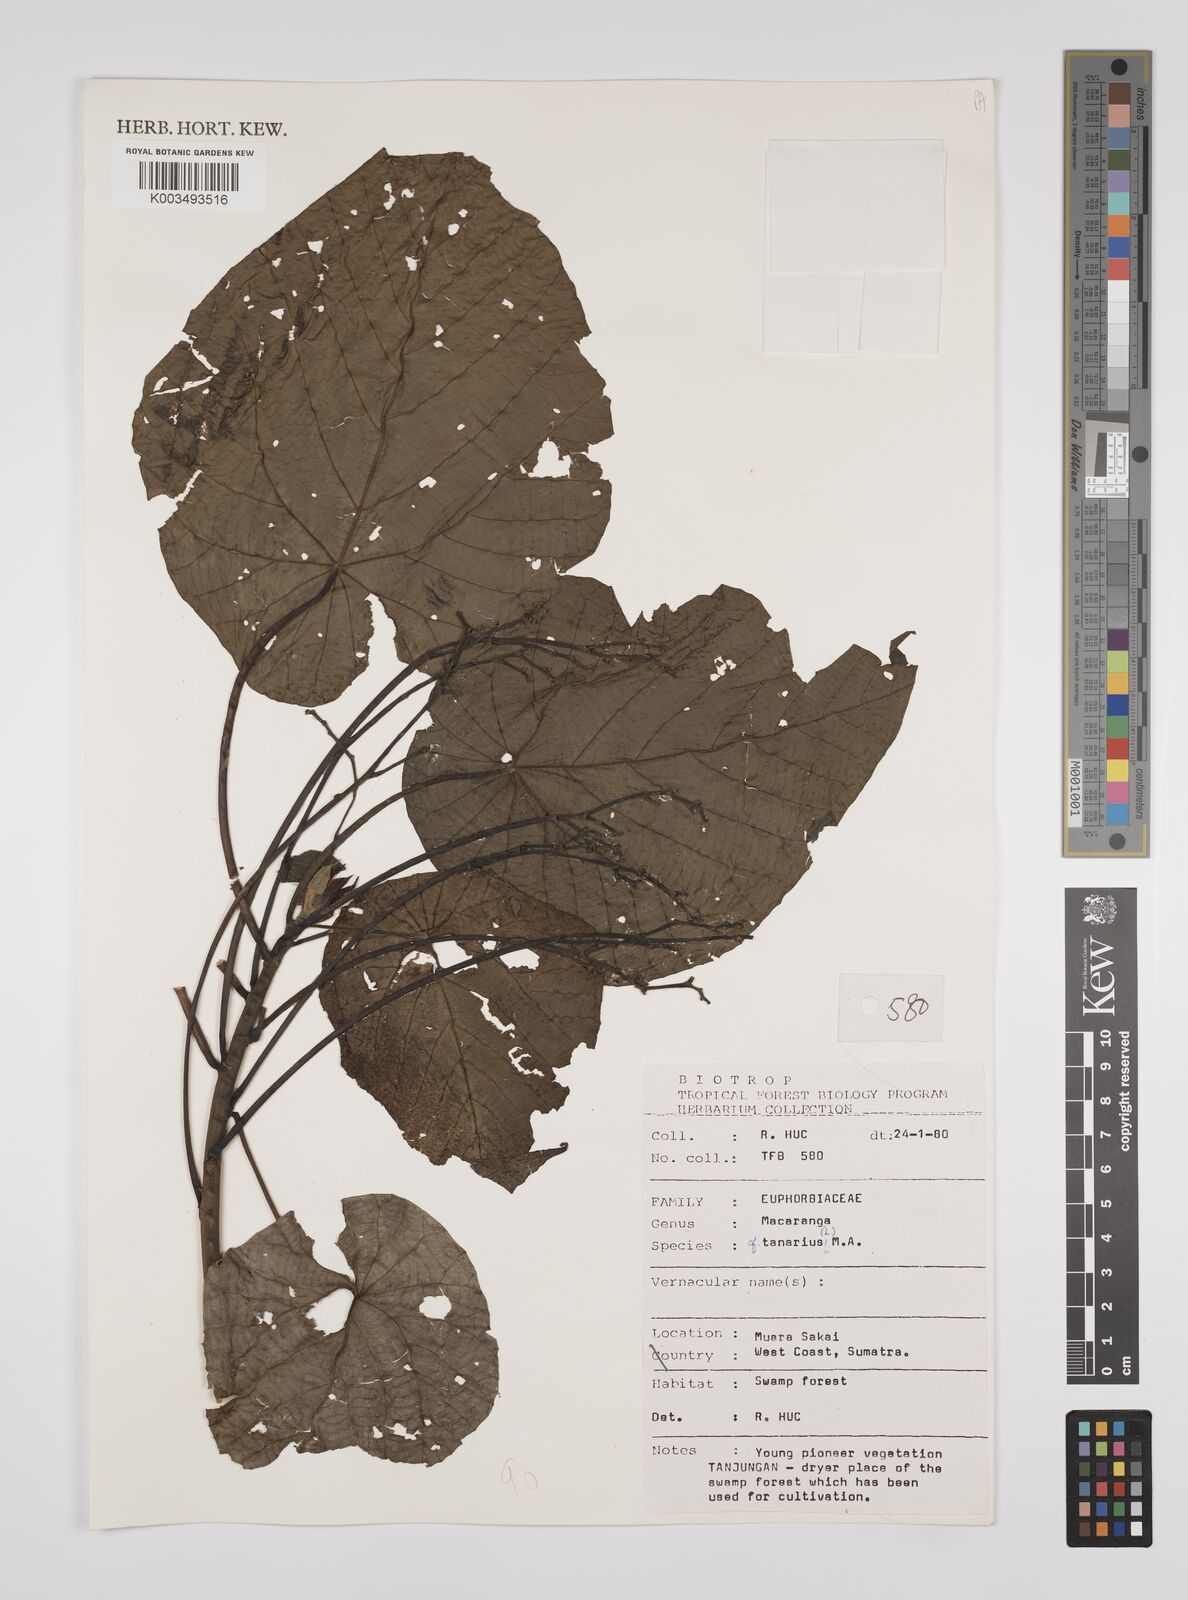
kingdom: Plantae
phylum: Tracheophyta
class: Magnoliopsida
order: Malpighiales
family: Euphorbiaceae
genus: Macaranga
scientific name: Macaranga tanarius
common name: Parasol leaf tree
